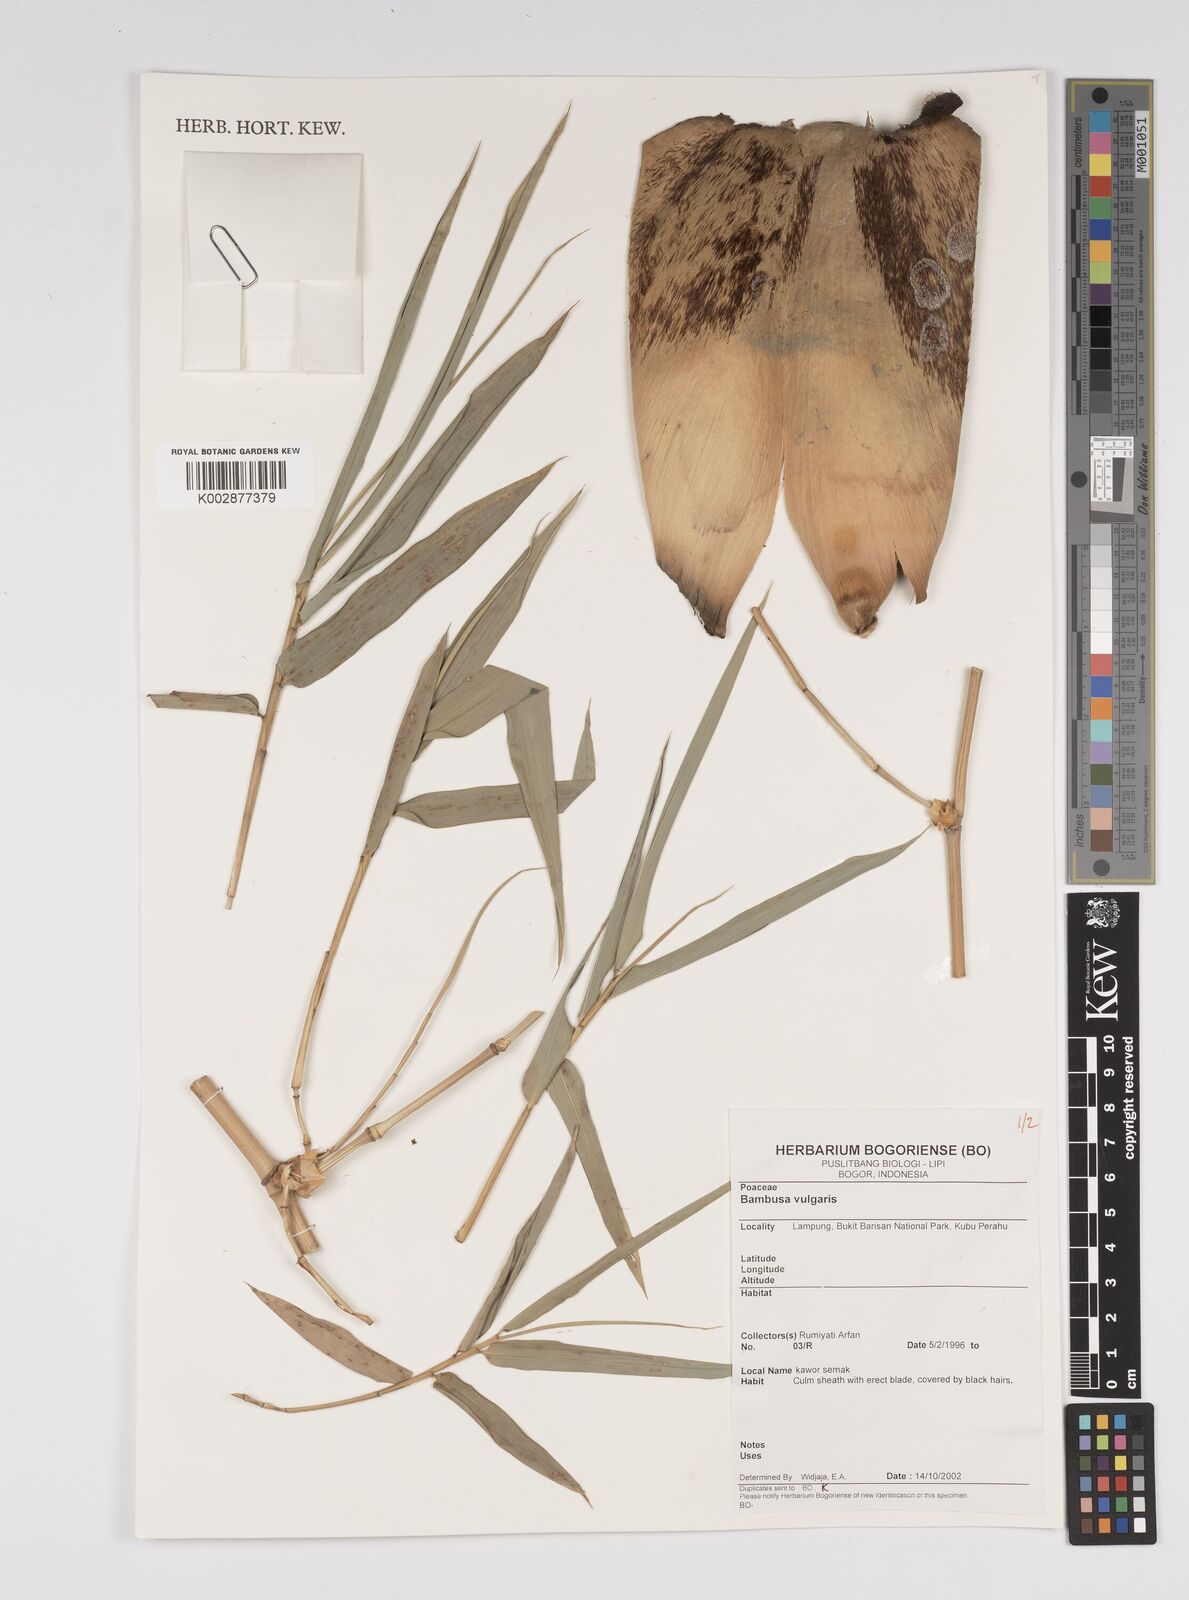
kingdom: Plantae
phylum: Tracheophyta
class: Liliopsida
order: Poales
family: Poaceae
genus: Bambusa
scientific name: Bambusa
